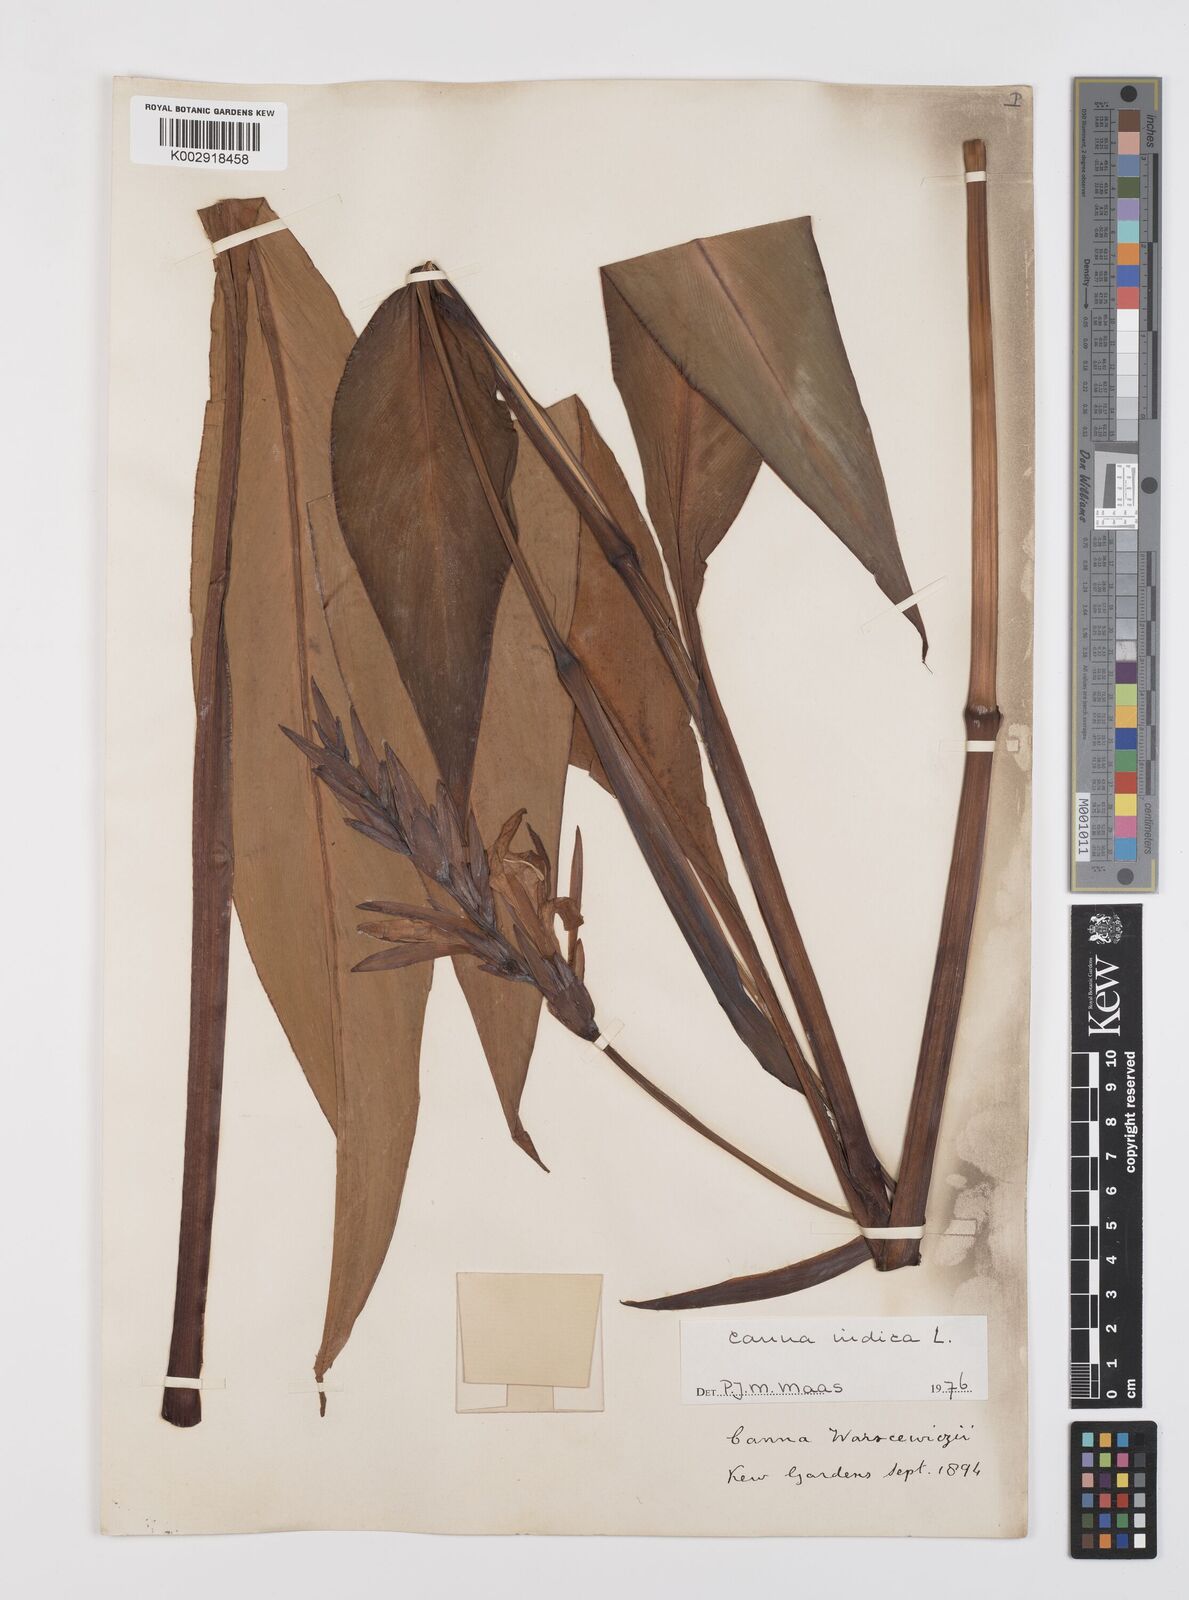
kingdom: Plantae
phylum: Tracheophyta
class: Liliopsida
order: Zingiberales
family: Cannaceae
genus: Canna
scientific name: Canna indica
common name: Indian shot
